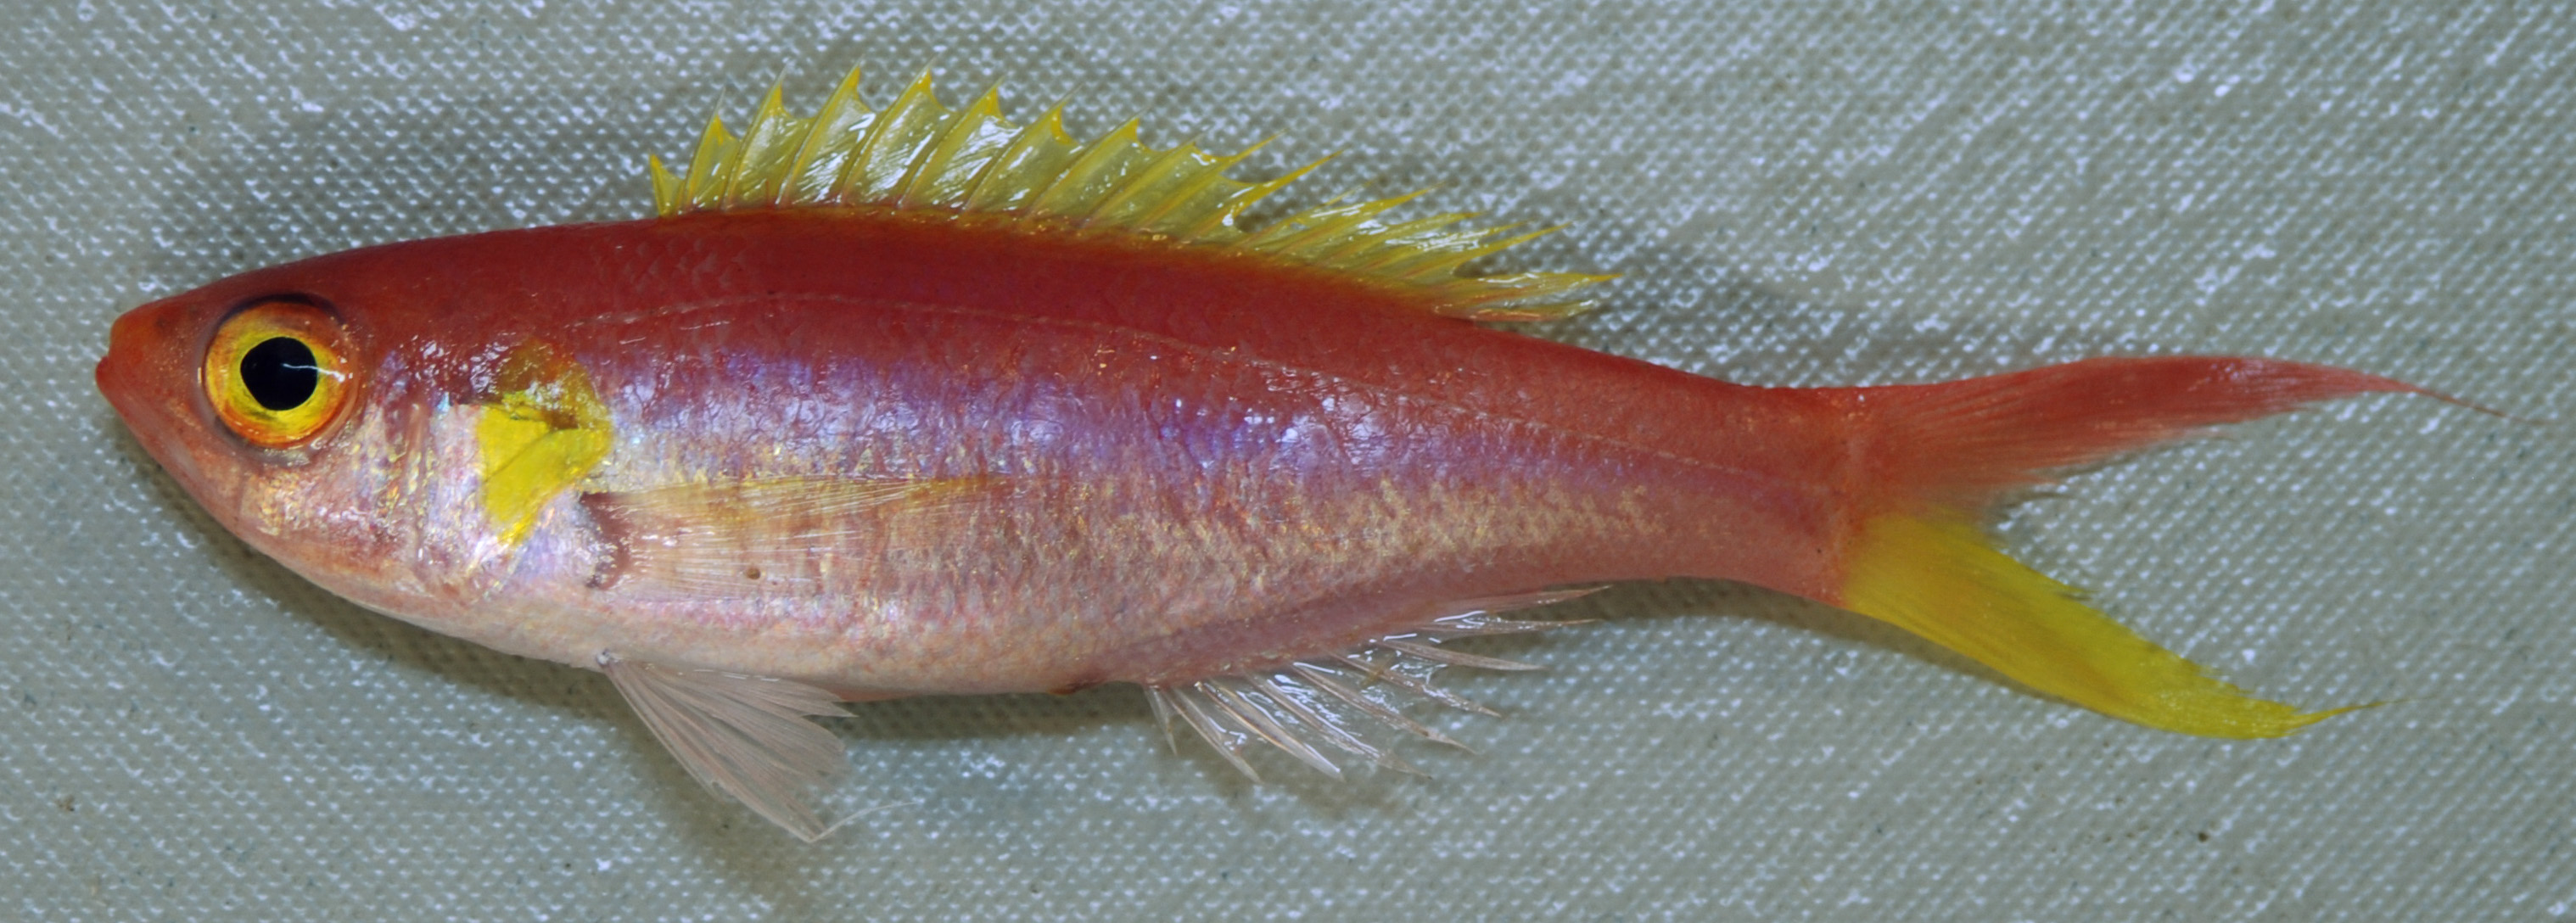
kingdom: Animalia
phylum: Chordata
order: Perciformes
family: Symphysanodontidae
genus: Symphysanodon
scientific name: Symphysanodon
